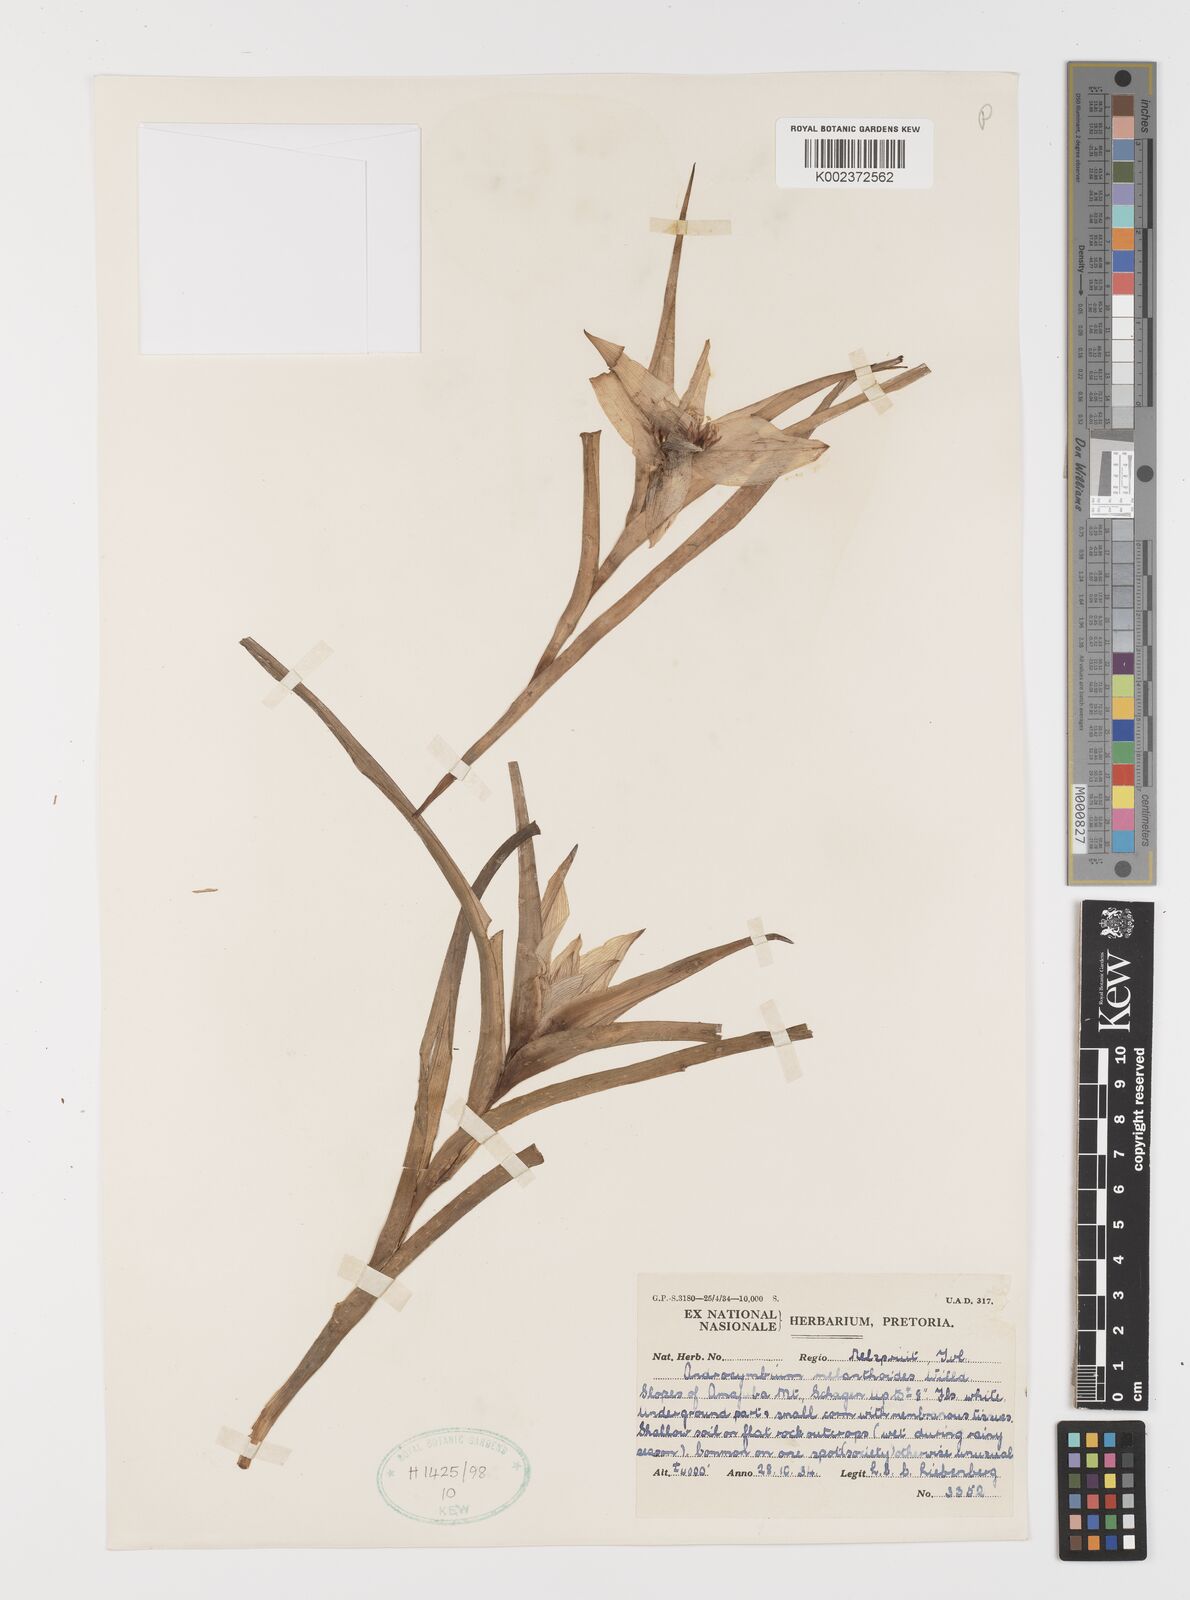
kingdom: Plantae
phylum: Tracheophyta
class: Liliopsida
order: Liliales
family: Colchicaceae
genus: Colchicum
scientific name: Colchicum melanthioides
